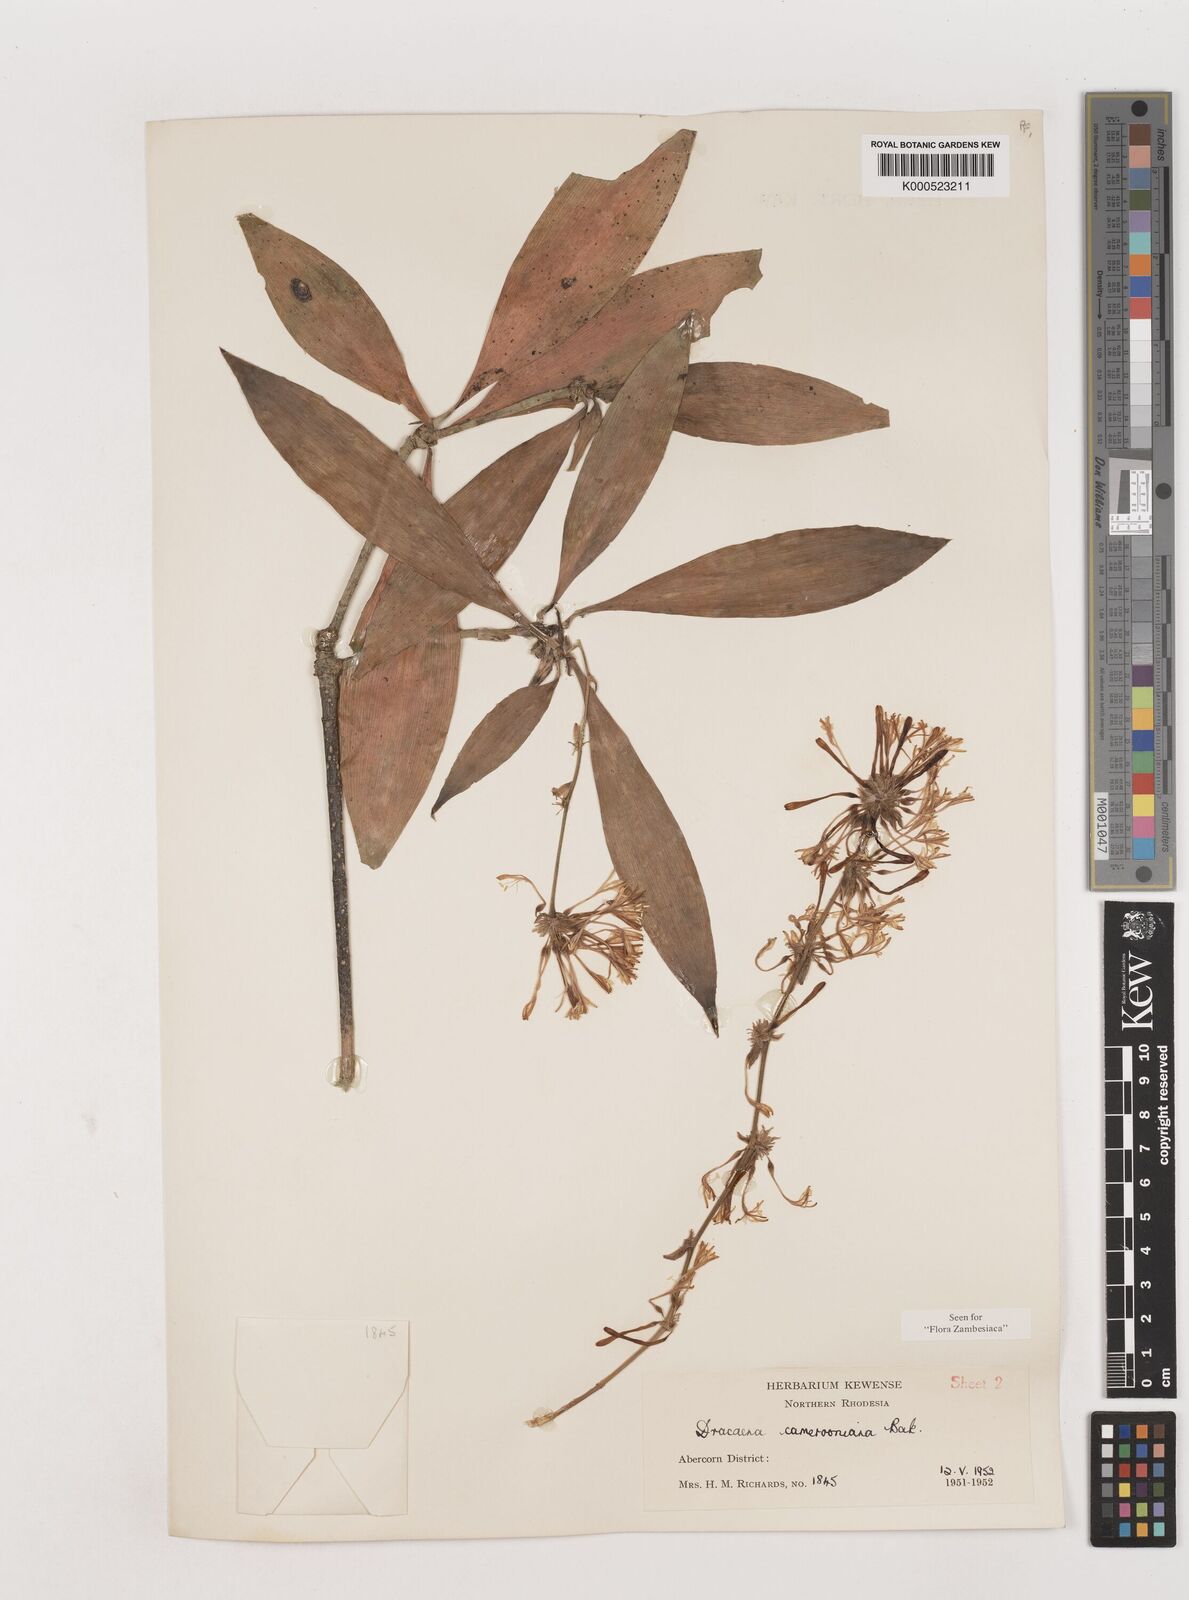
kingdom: Plantae
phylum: Tracheophyta
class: Liliopsida
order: Asparagales
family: Asparagaceae
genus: Dracaena
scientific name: Dracaena camerooniana
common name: Dragon tree
